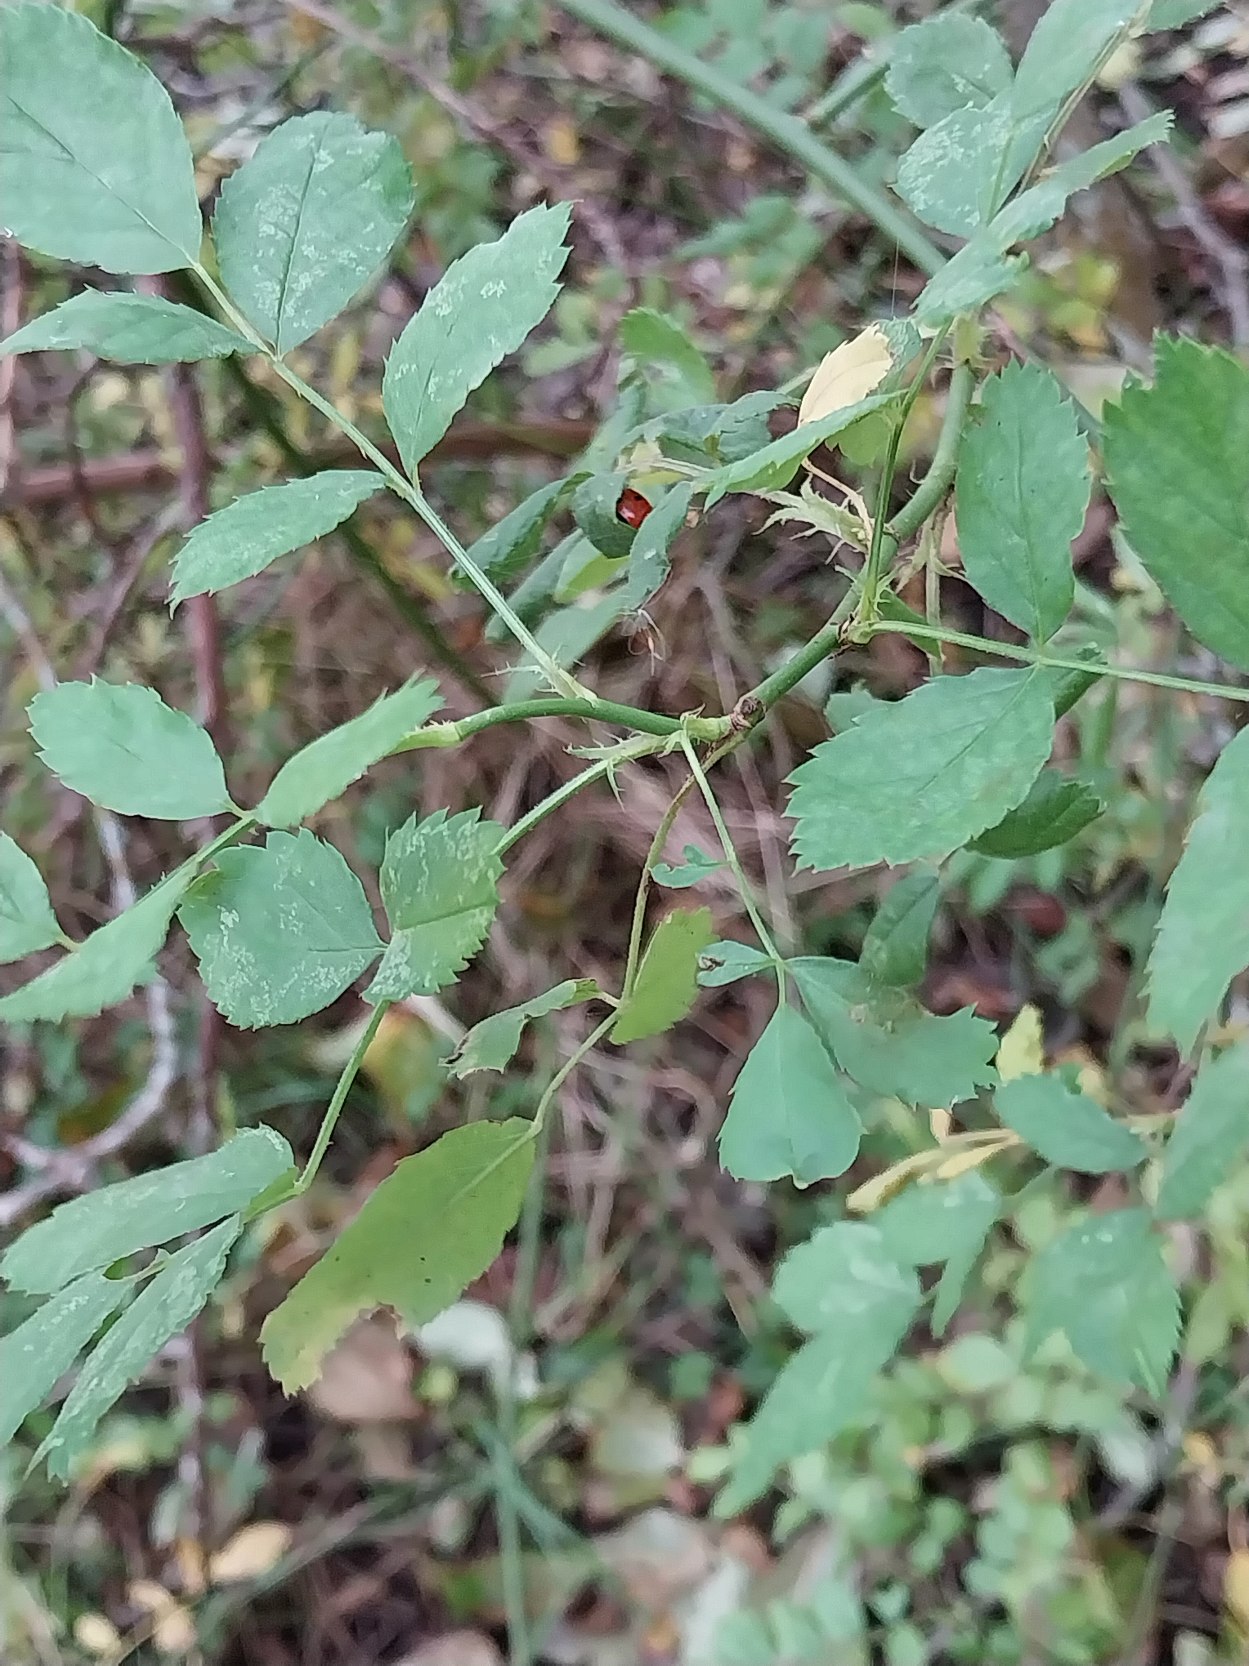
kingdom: Plantae
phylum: Tracheophyta
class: Magnoliopsida
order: Rosales
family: Rosaceae
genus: Rosa
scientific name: Rosa multiflora
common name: Mangeblomstret rose
